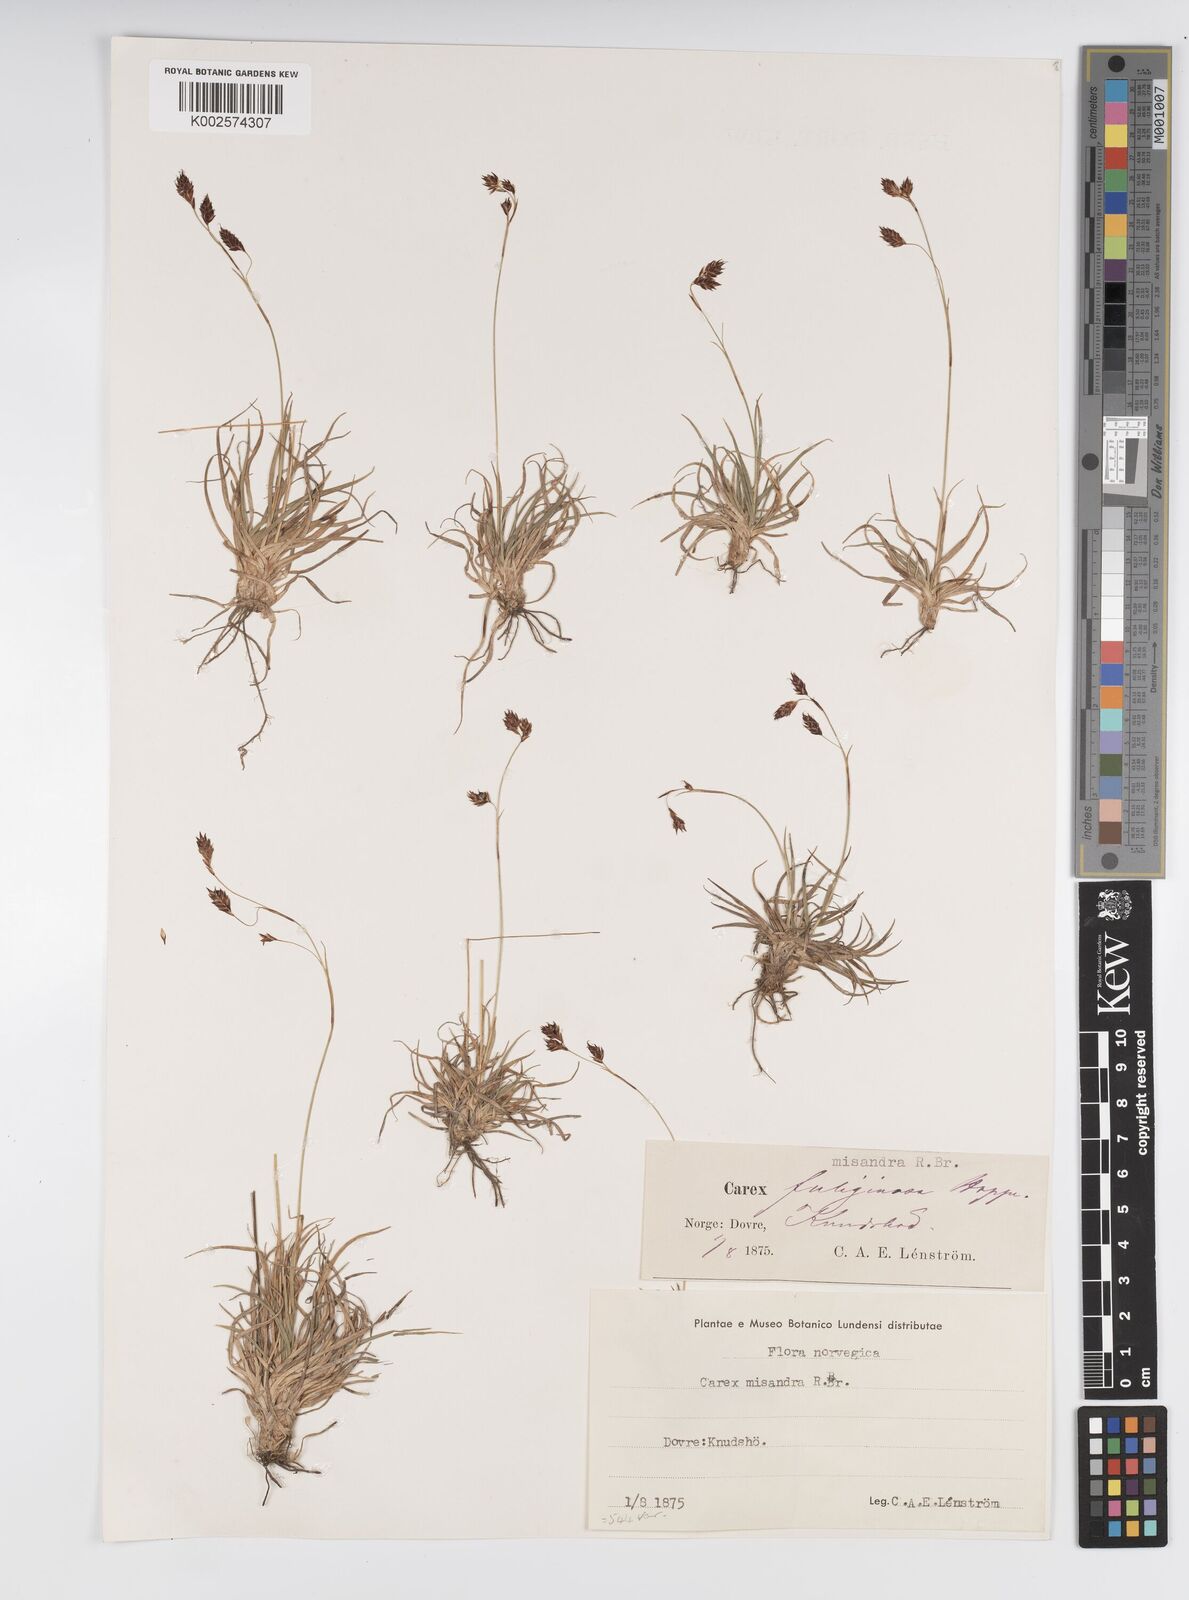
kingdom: Plantae
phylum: Tracheophyta
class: Liliopsida
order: Poales
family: Cyperaceae
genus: Carex
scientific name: Carex fuliginosa
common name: Few-flowered sedge
